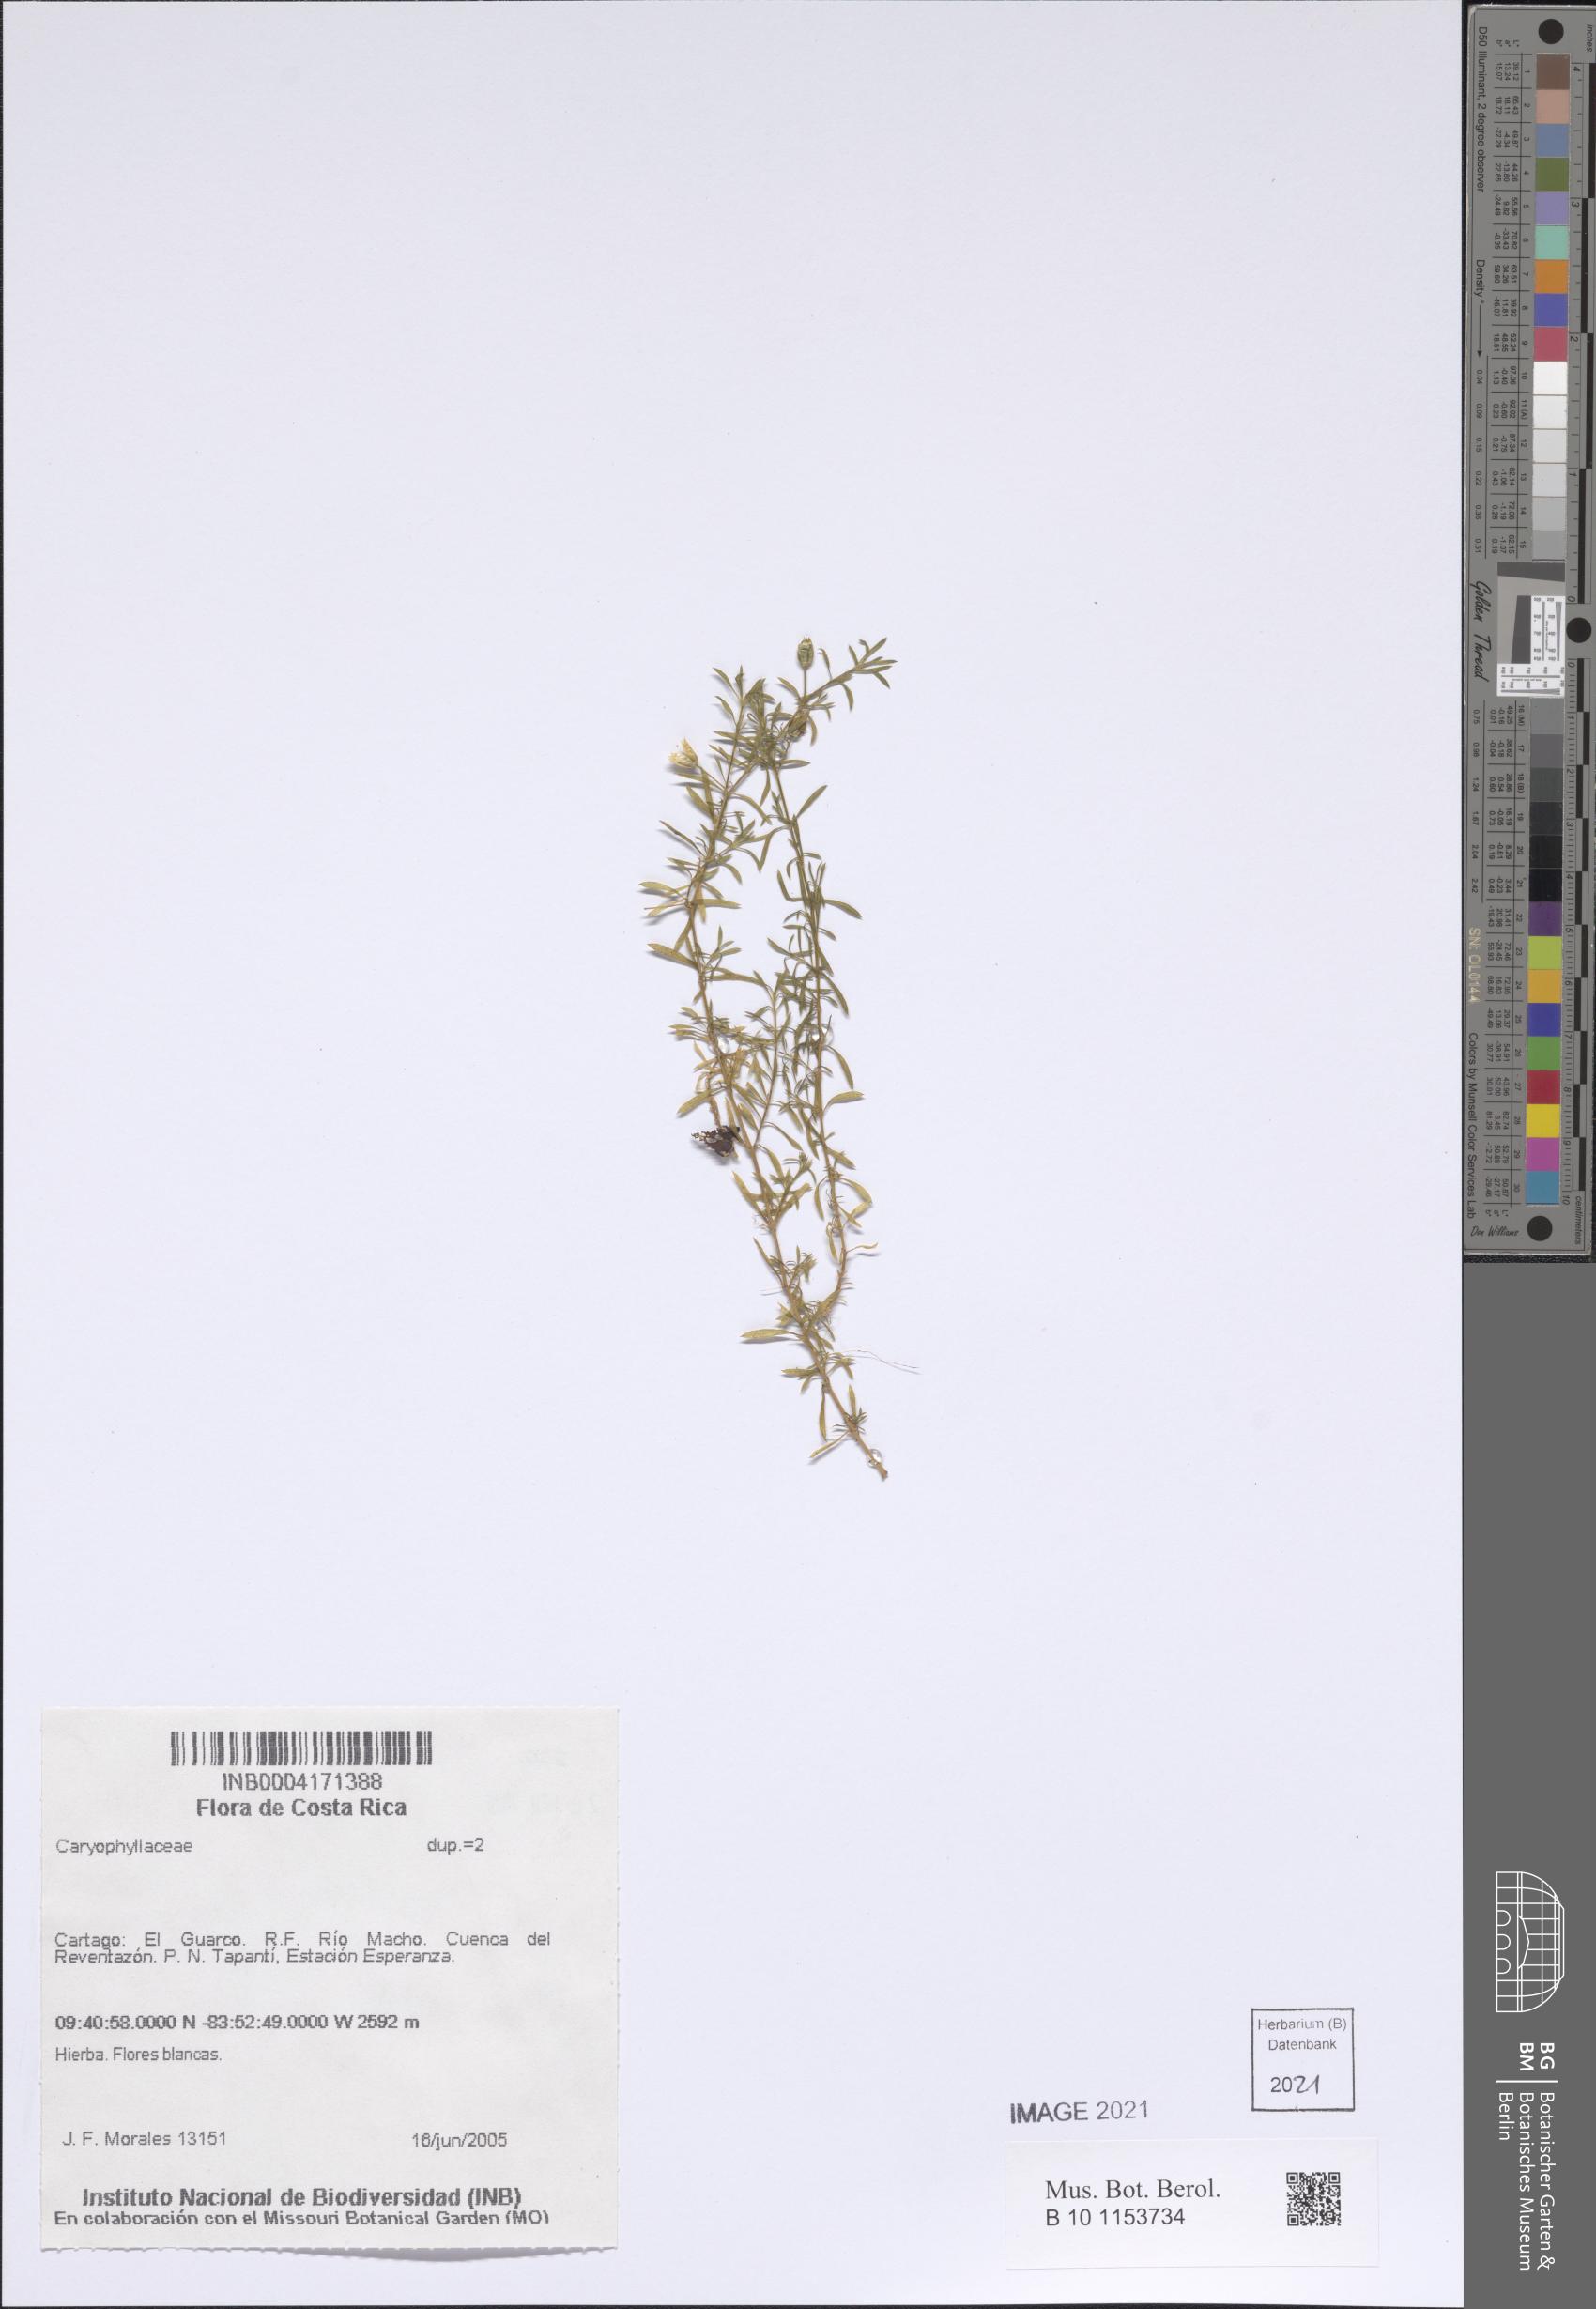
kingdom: Plantae
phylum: Tracheophyta
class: Magnoliopsida
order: Caryophyllales
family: Caryophyllaceae
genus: Arenaria
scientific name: Arenaria lanuginosa
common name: Spread sandwort
